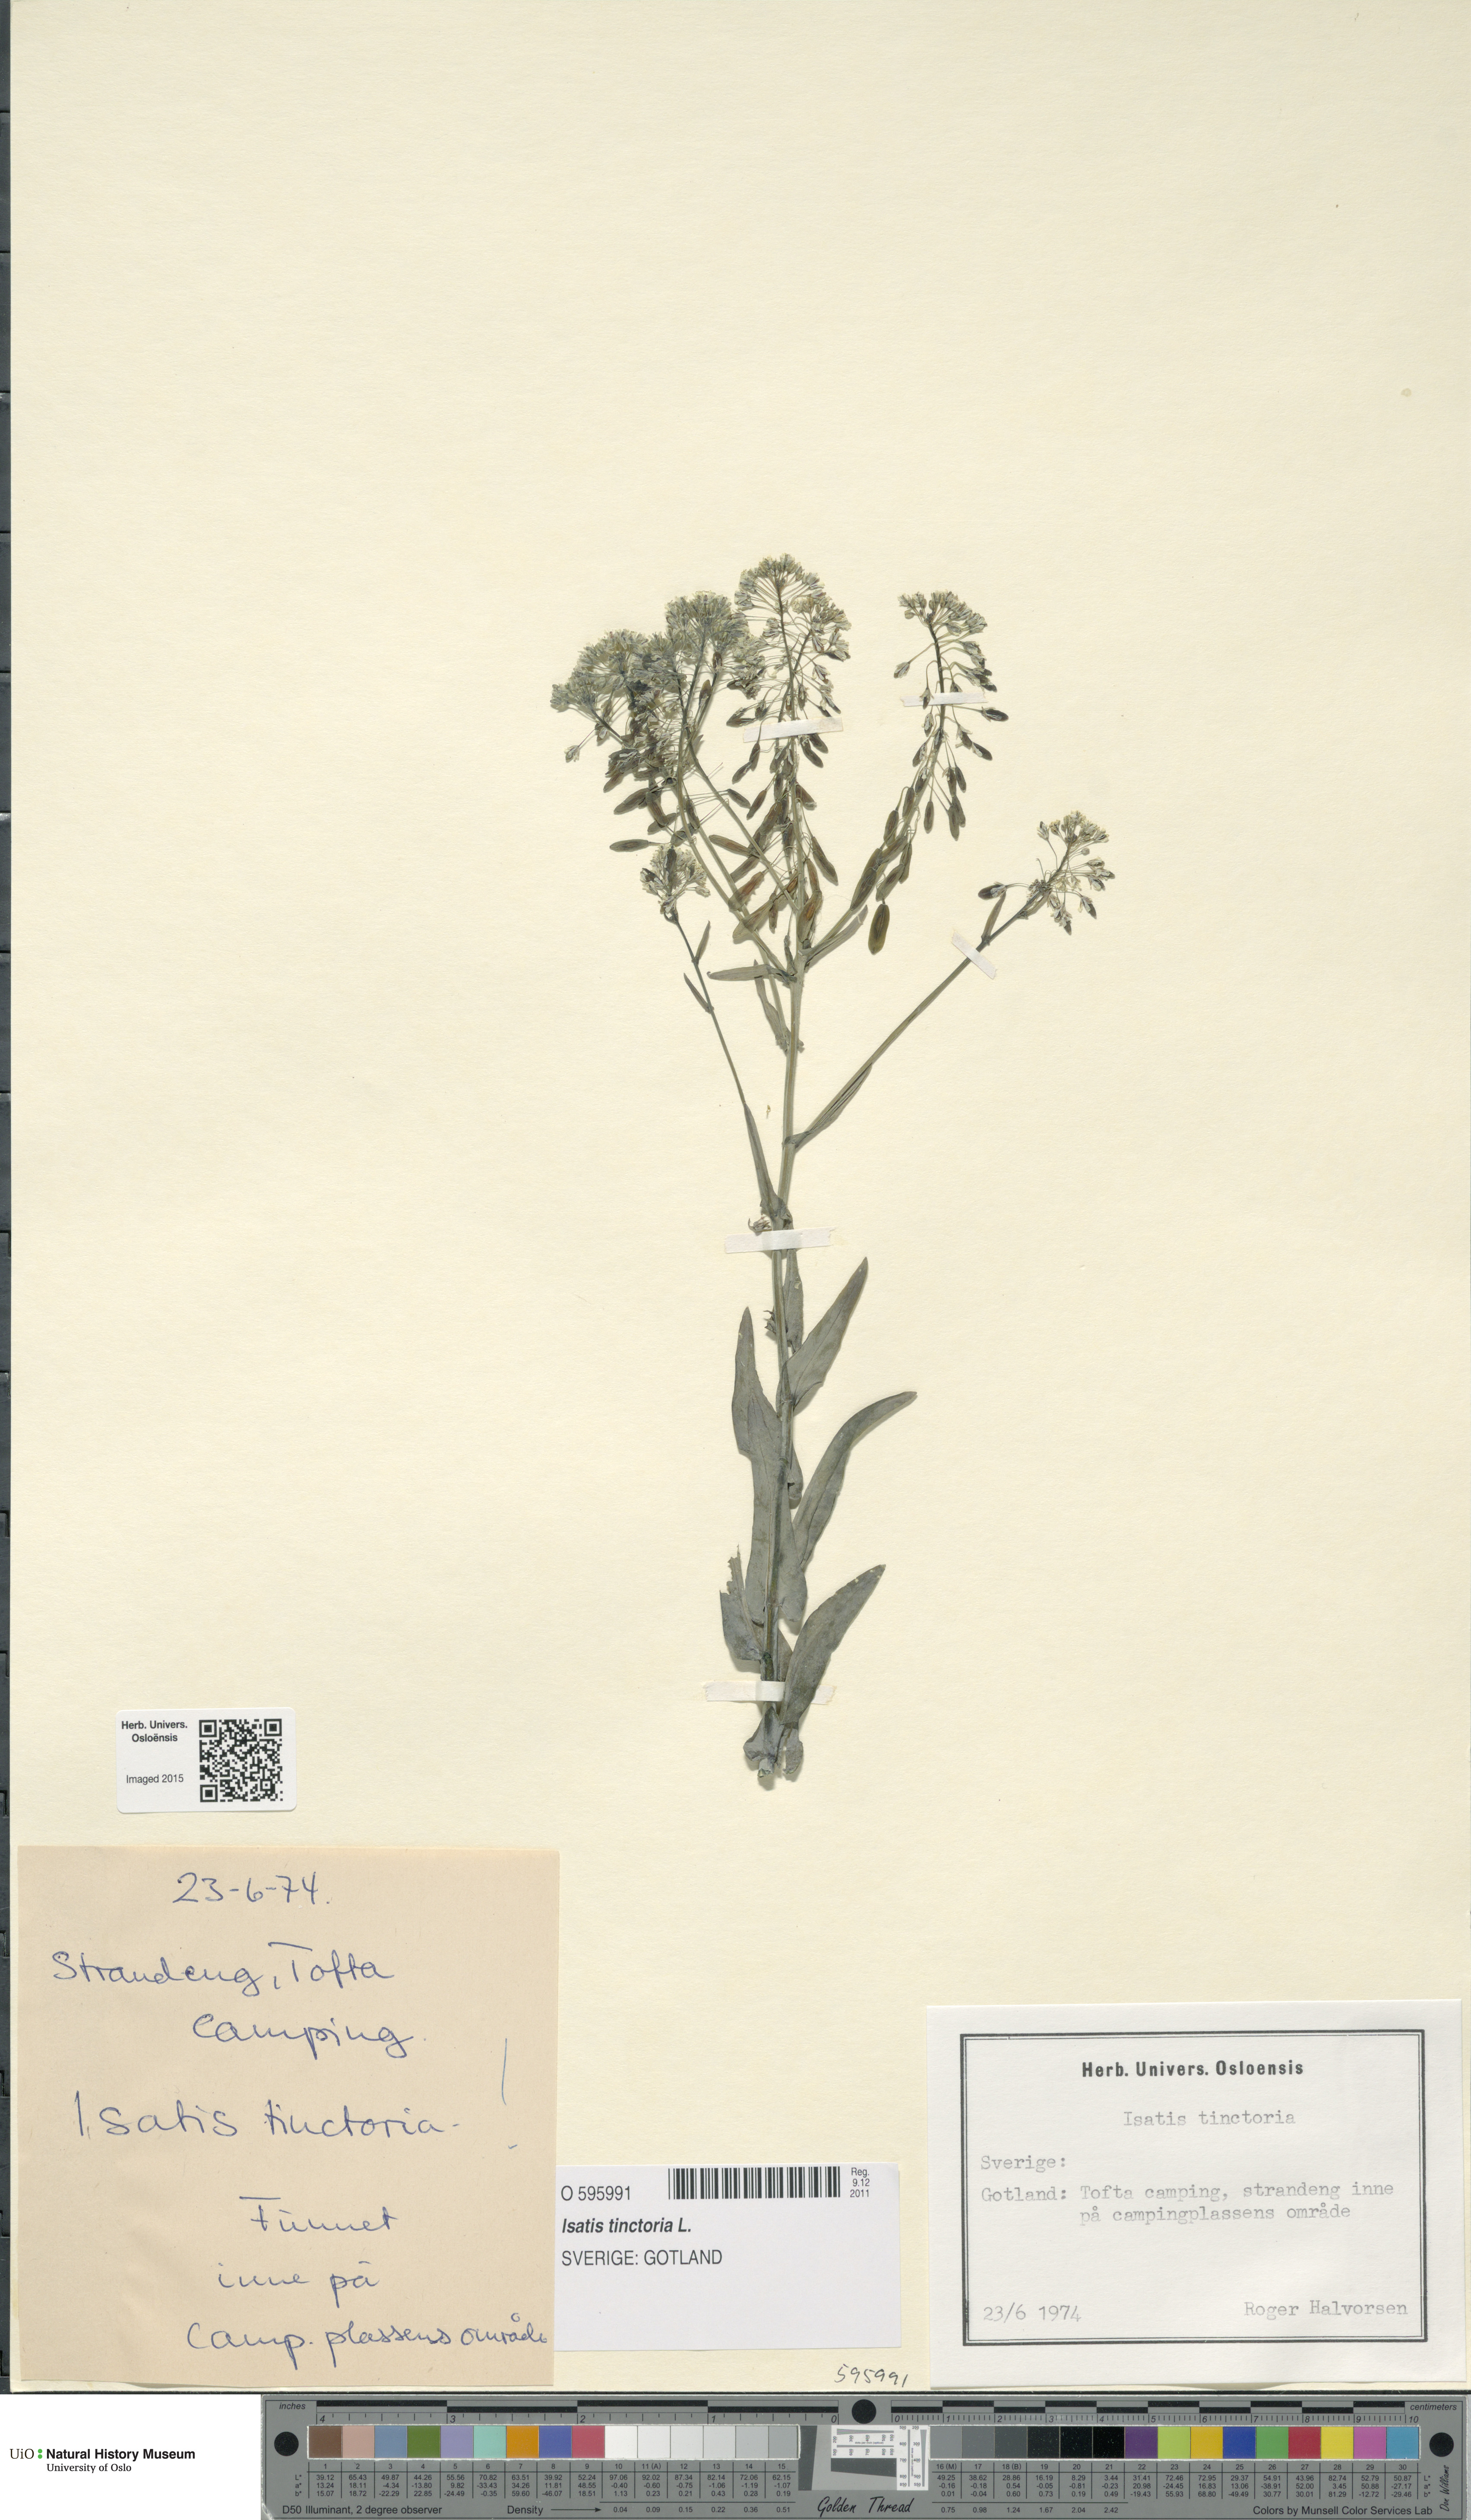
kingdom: Plantae
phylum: Tracheophyta
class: Magnoliopsida
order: Brassicales
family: Brassicaceae
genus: Isatis
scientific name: Isatis tinctoria
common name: Woad
